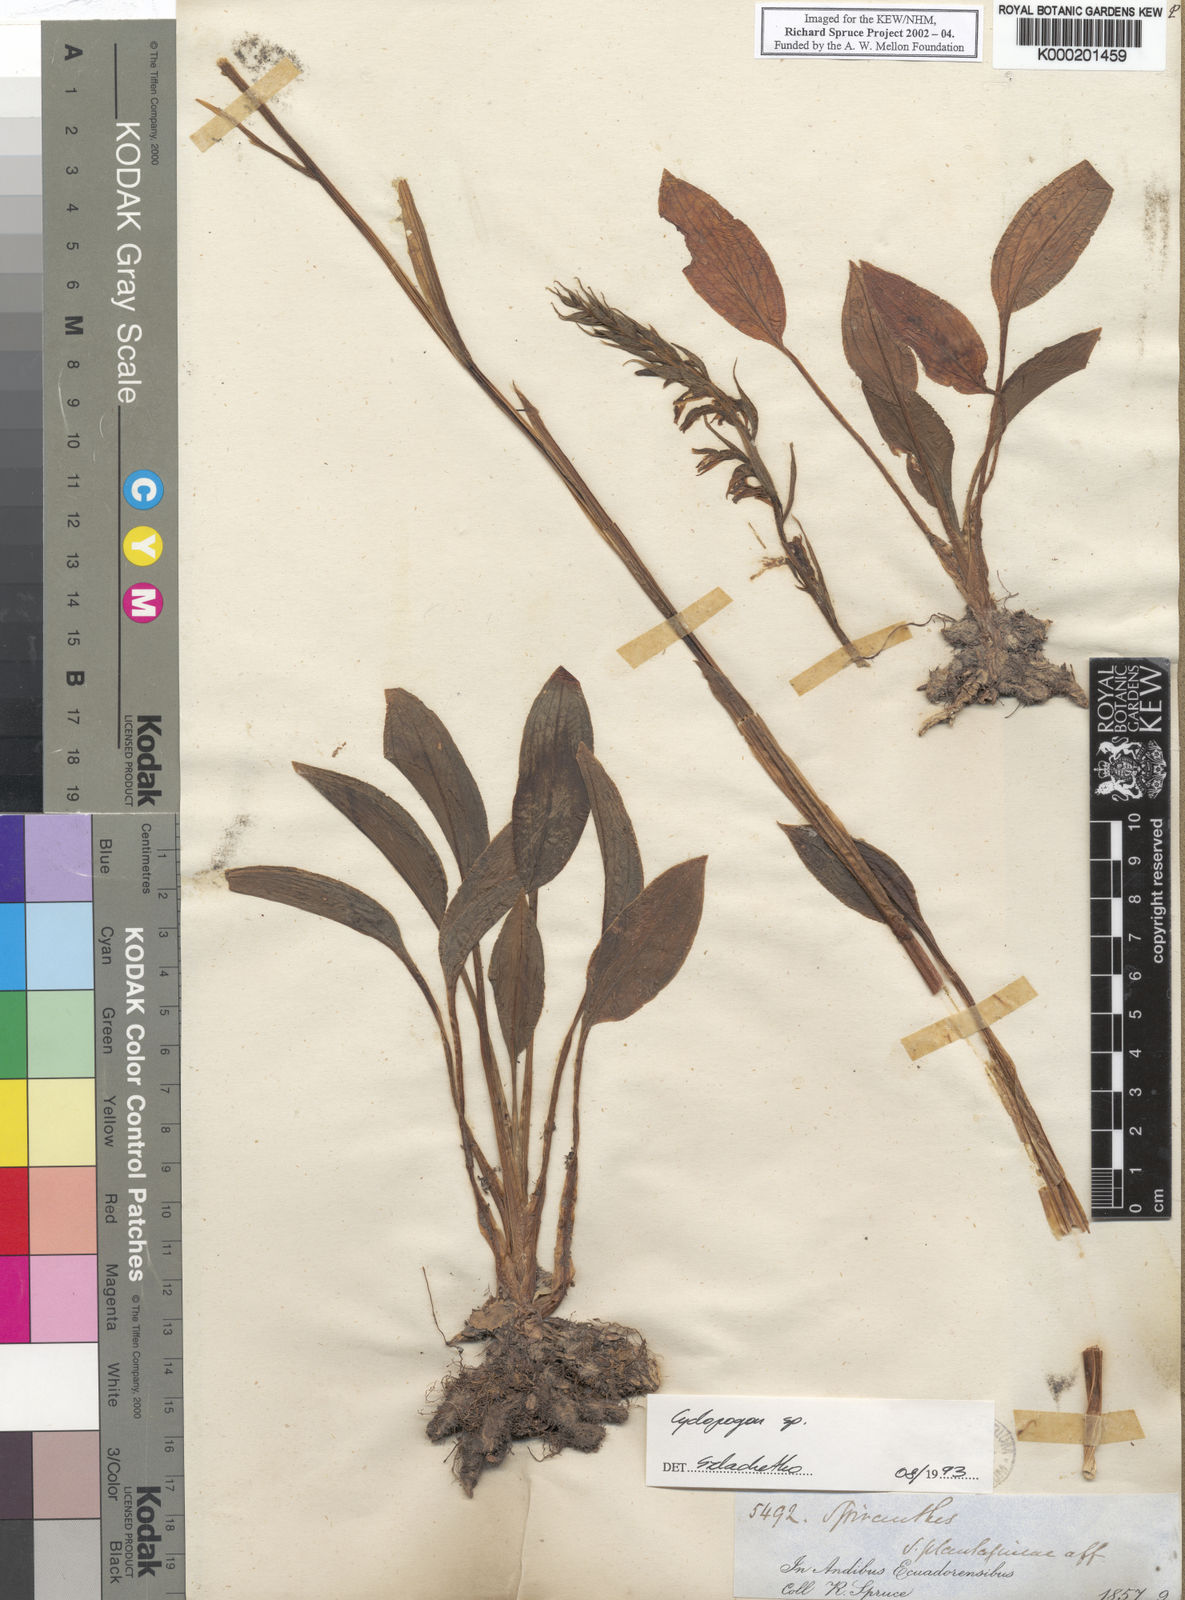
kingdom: Plantae
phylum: Tracheophyta
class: Liliopsida
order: Asparagales
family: Orchidaceae
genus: Cyclopogon
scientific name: Cyclopogon
